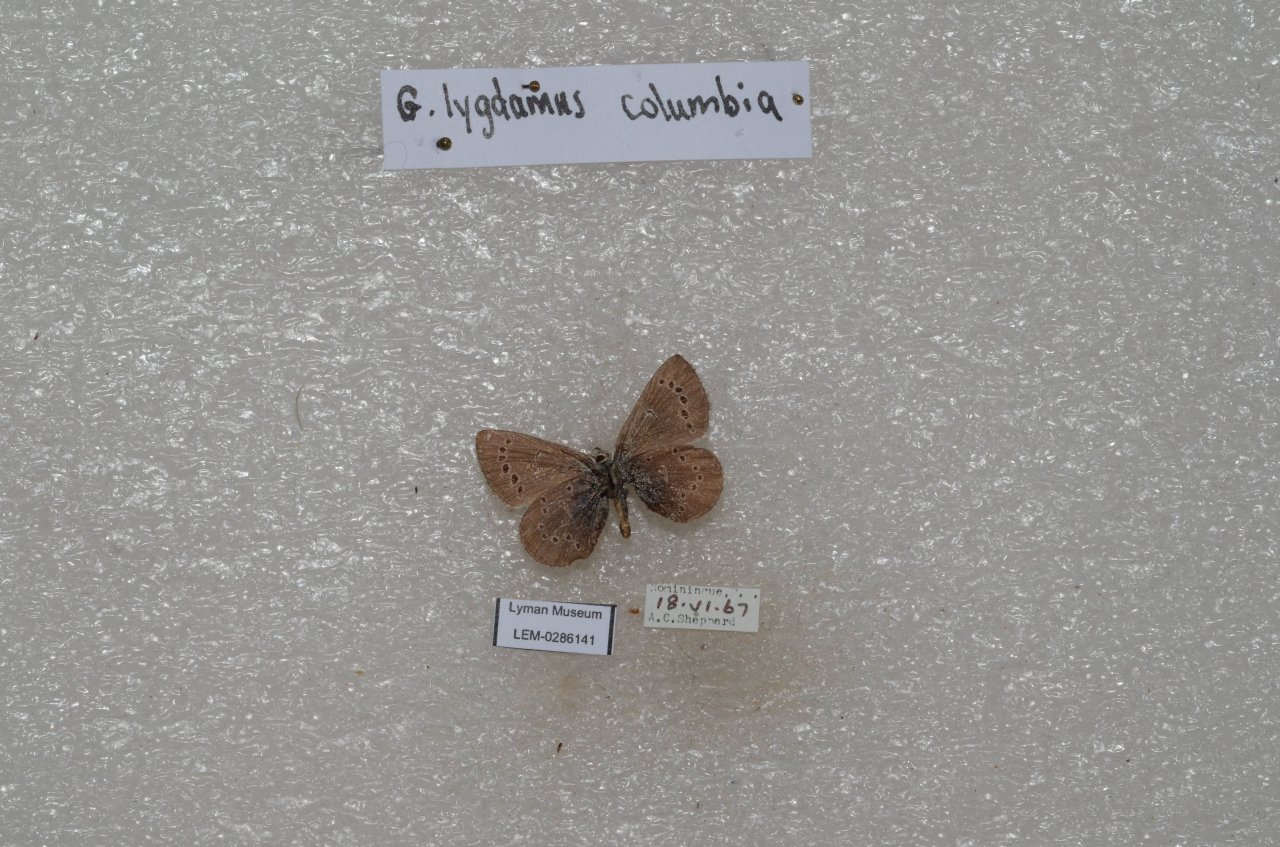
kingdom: Animalia
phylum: Arthropoda
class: Insecta
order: Lepidoptera
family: Lycaenidae
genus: Glaucopsyche
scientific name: Glaucopsyche lygdamus
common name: Silvery Blue
